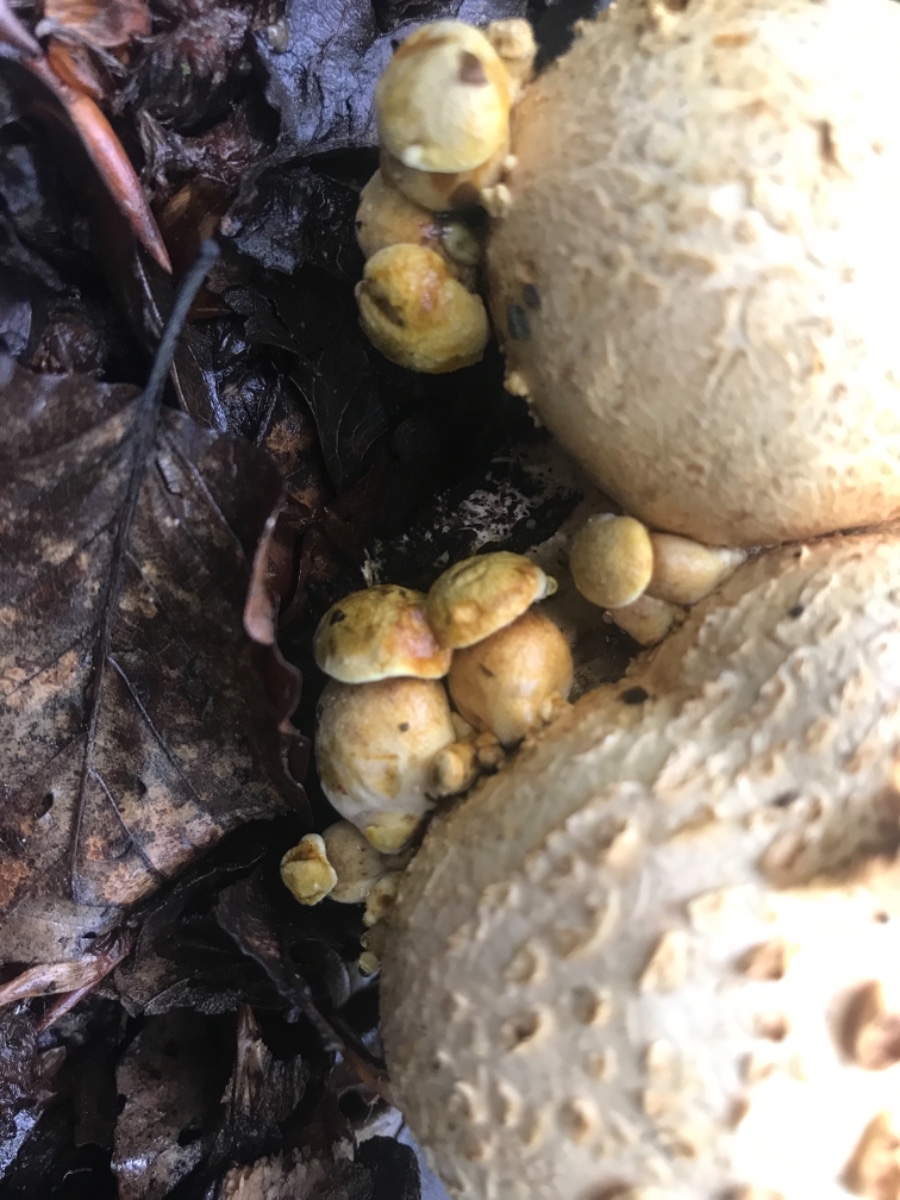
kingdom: Fungi
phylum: Basidiomycota
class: Agaricomycetes
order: Boletales
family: Boletaceae
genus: Pseudoboletus
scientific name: Pseudoboletus parasiticus
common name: snyltende rørhat
